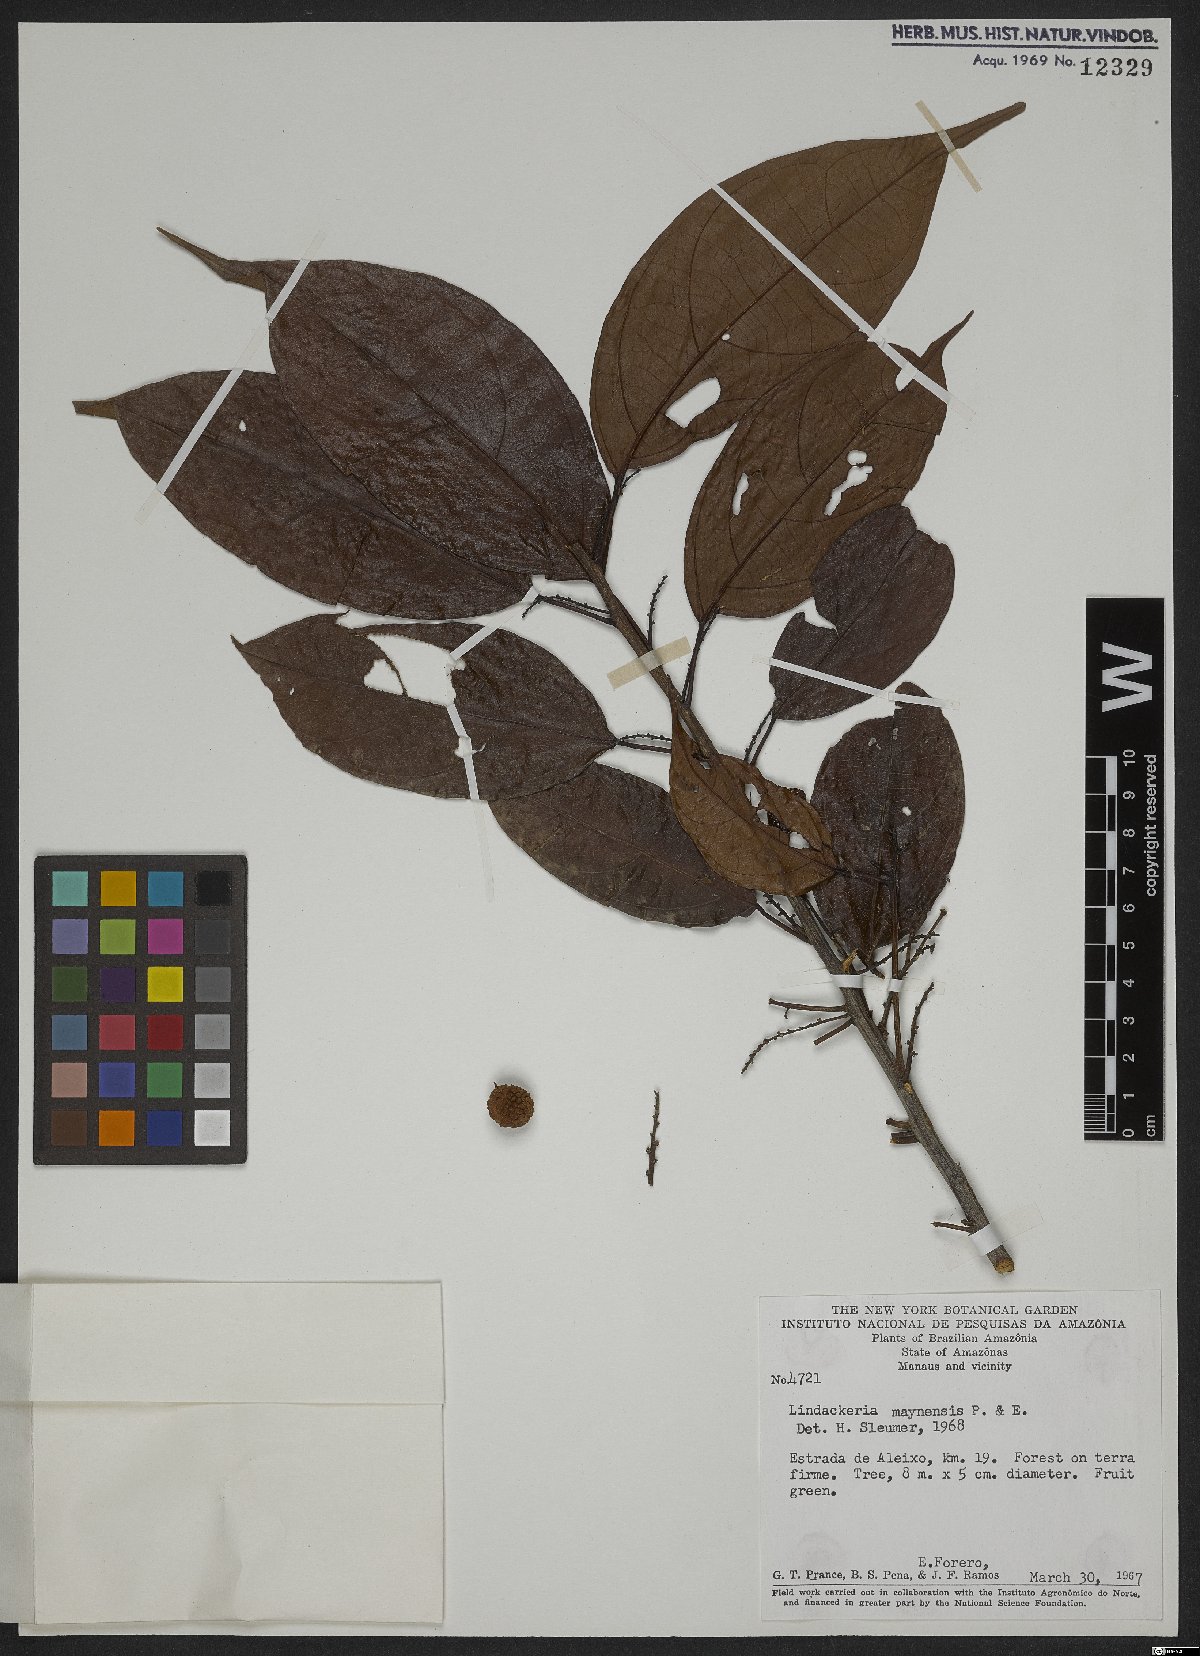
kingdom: Plantae
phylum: Tracheophyta
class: Magnoliopsida
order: Malpighiales
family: Achariaceae
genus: Lindackeria
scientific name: Lindackeria paludosa
